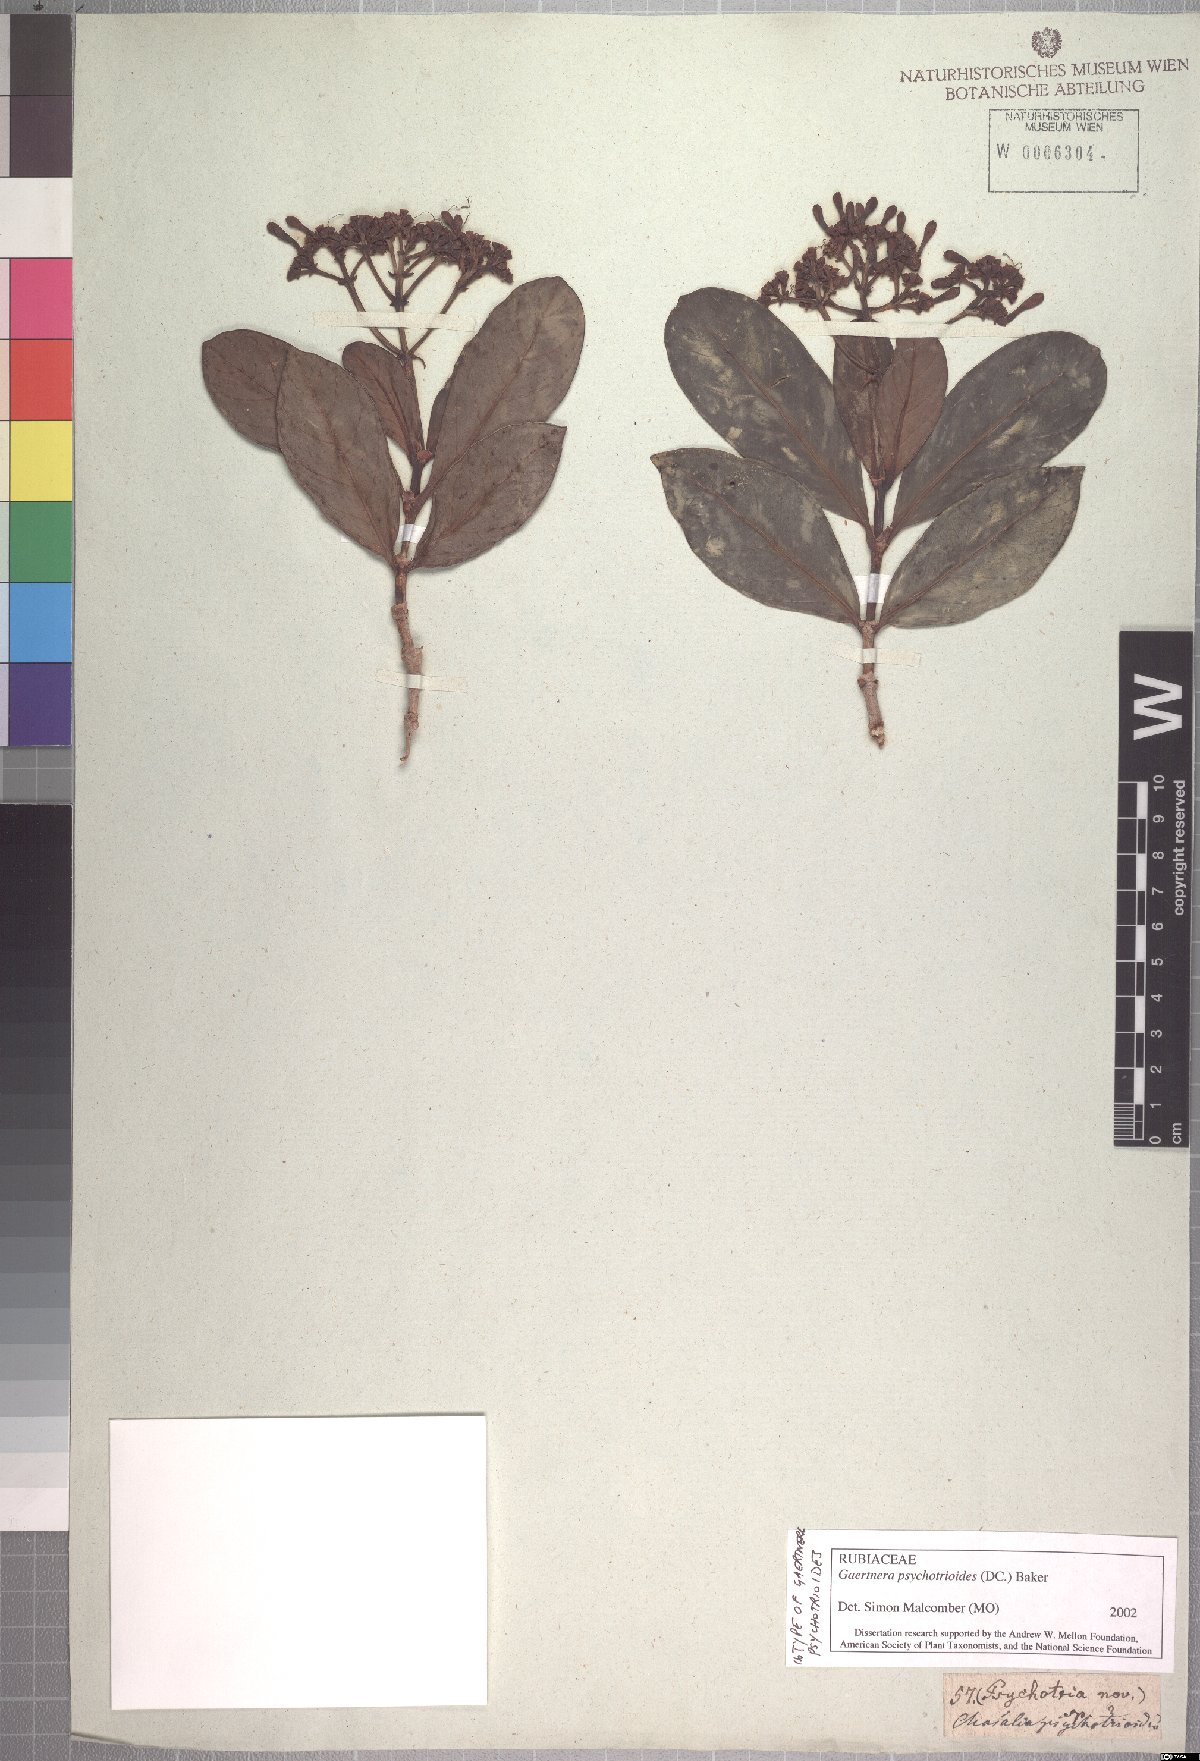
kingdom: Plantae
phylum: Tracheophyta
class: Magnoliopsida
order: Gentianales
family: Rubiaceae
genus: Gaertnera
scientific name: Gaertnera psychotrioides
